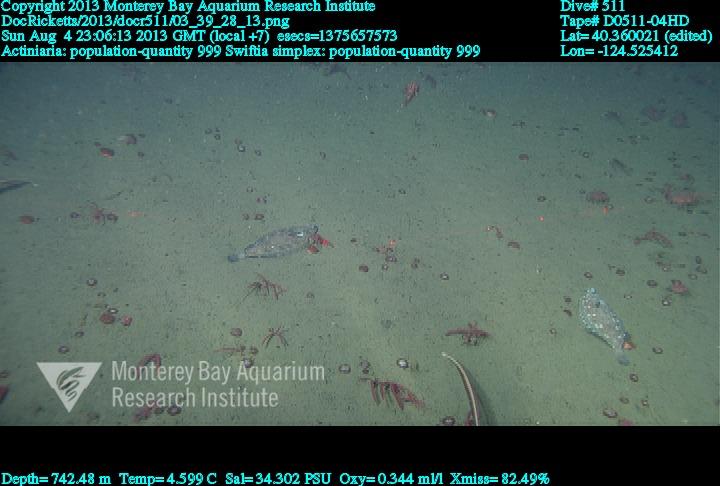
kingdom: Animalia
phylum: Cnidaria
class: Anthozoa
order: Malacalcyonacea
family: Gorgoniidae
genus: Callistephanus
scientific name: Callistephanus simplex
